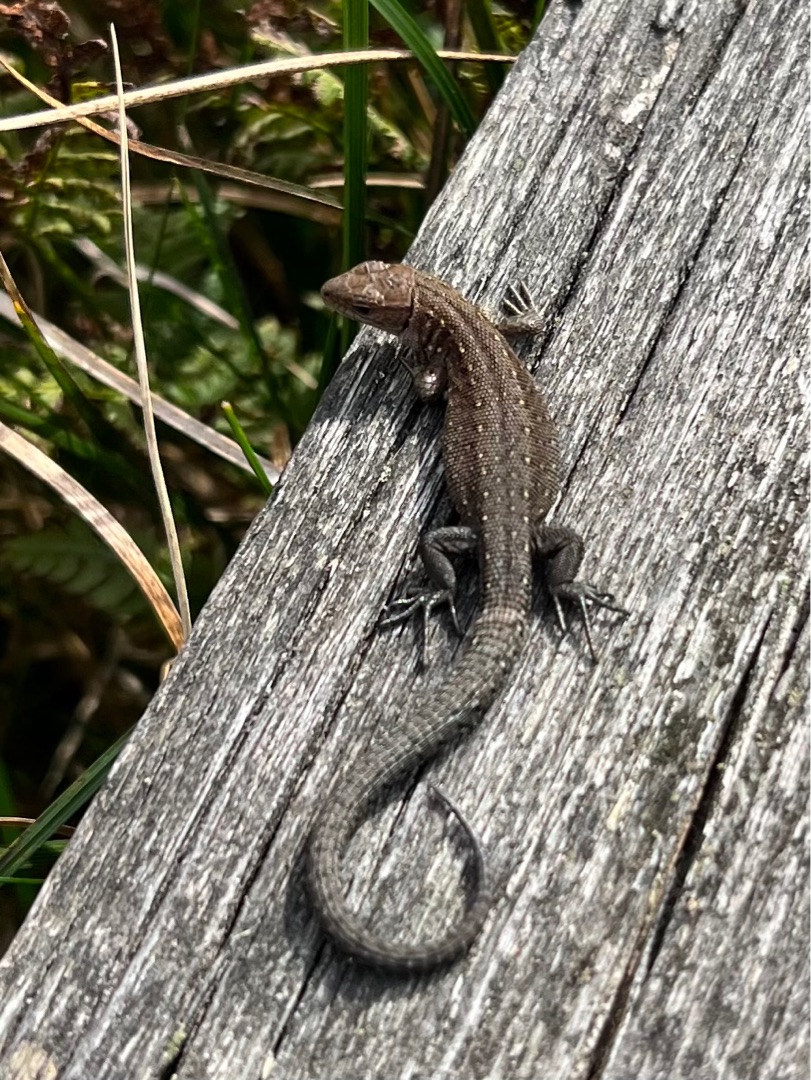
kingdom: Animalia
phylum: Chordata
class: Squamata
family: Lacertidae
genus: Zootoca
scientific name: Zootoca vivipara
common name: Skovfirben
